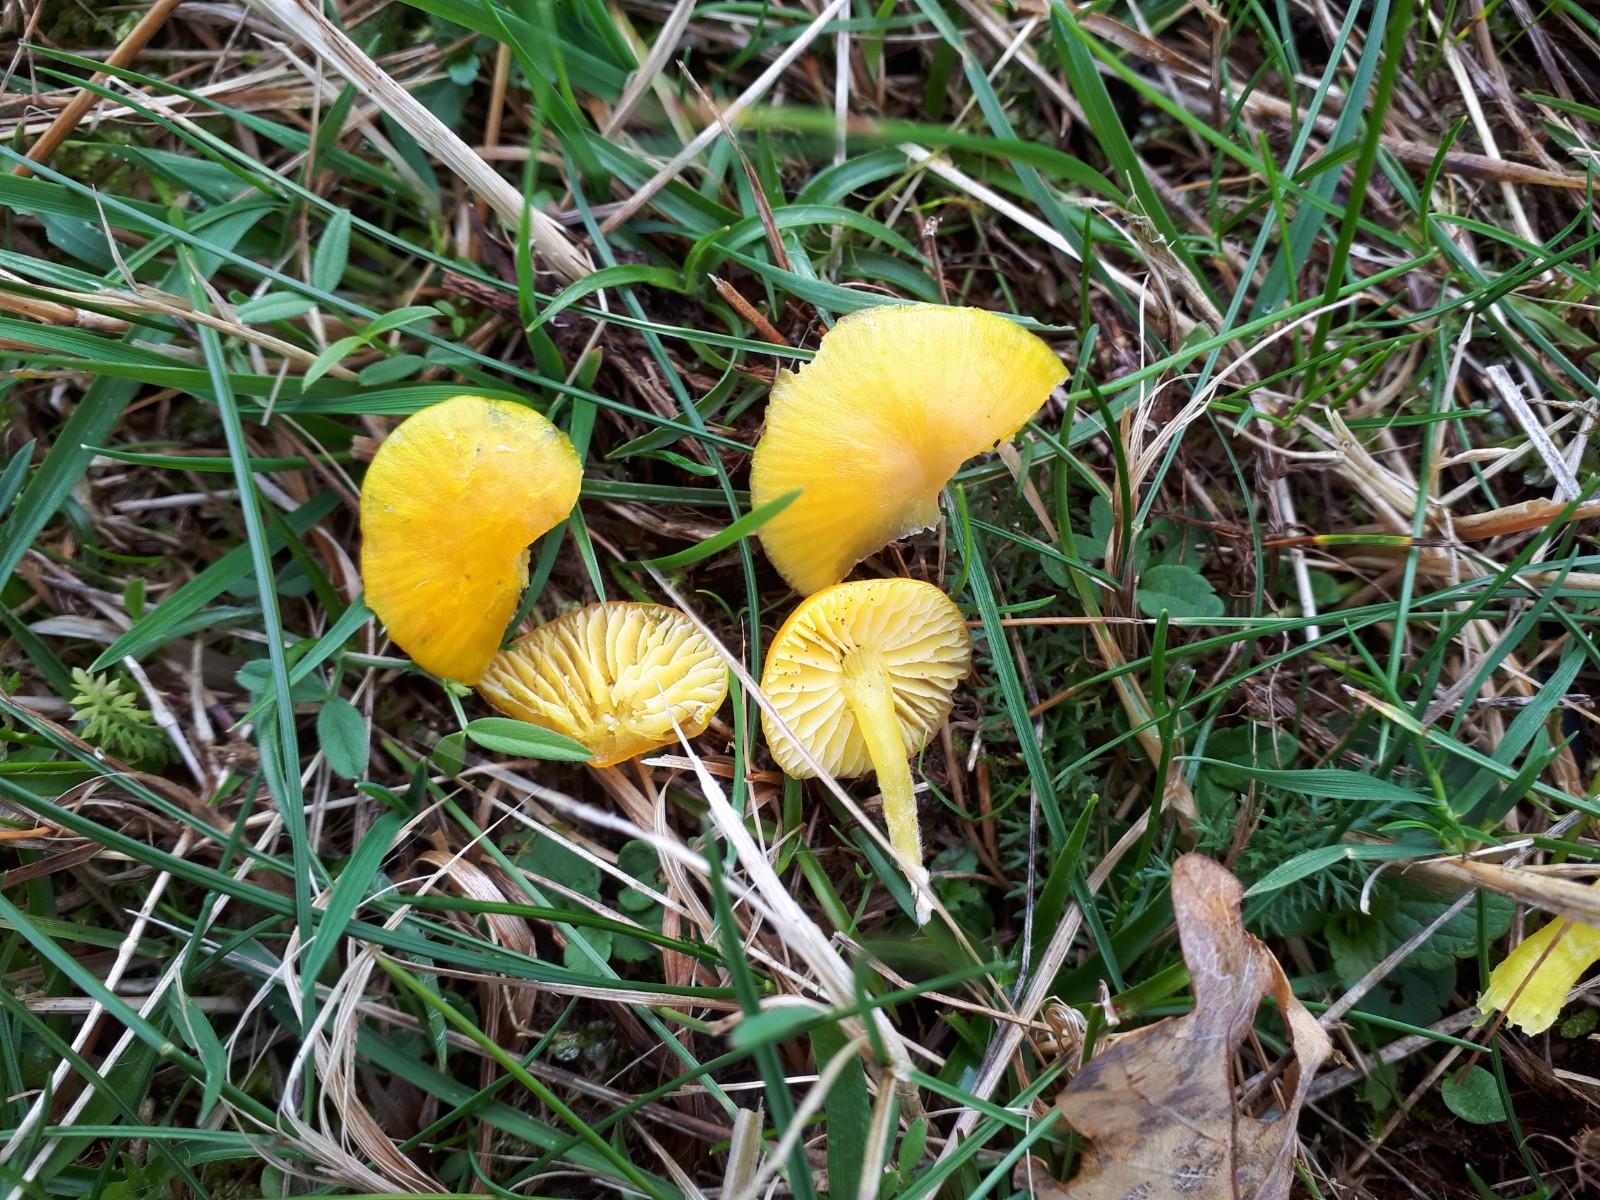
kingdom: Fungi
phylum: Basidiomycota
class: Agaricomycetes
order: Agaricales
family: Hygrophoraceae
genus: Hygrocybe
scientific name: Hygrocybe ceracea
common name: voksgul vokshat
